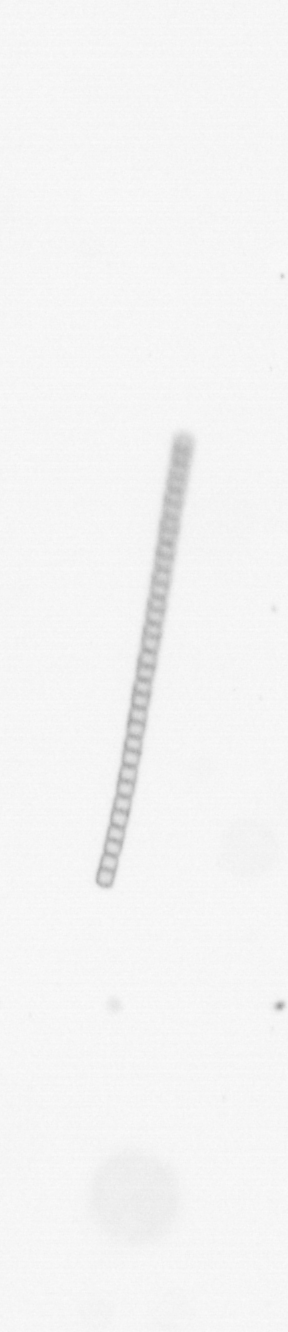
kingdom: Chromista
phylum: Ochrophyta
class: Bacillariophyceae
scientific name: Bacillariophyceae
